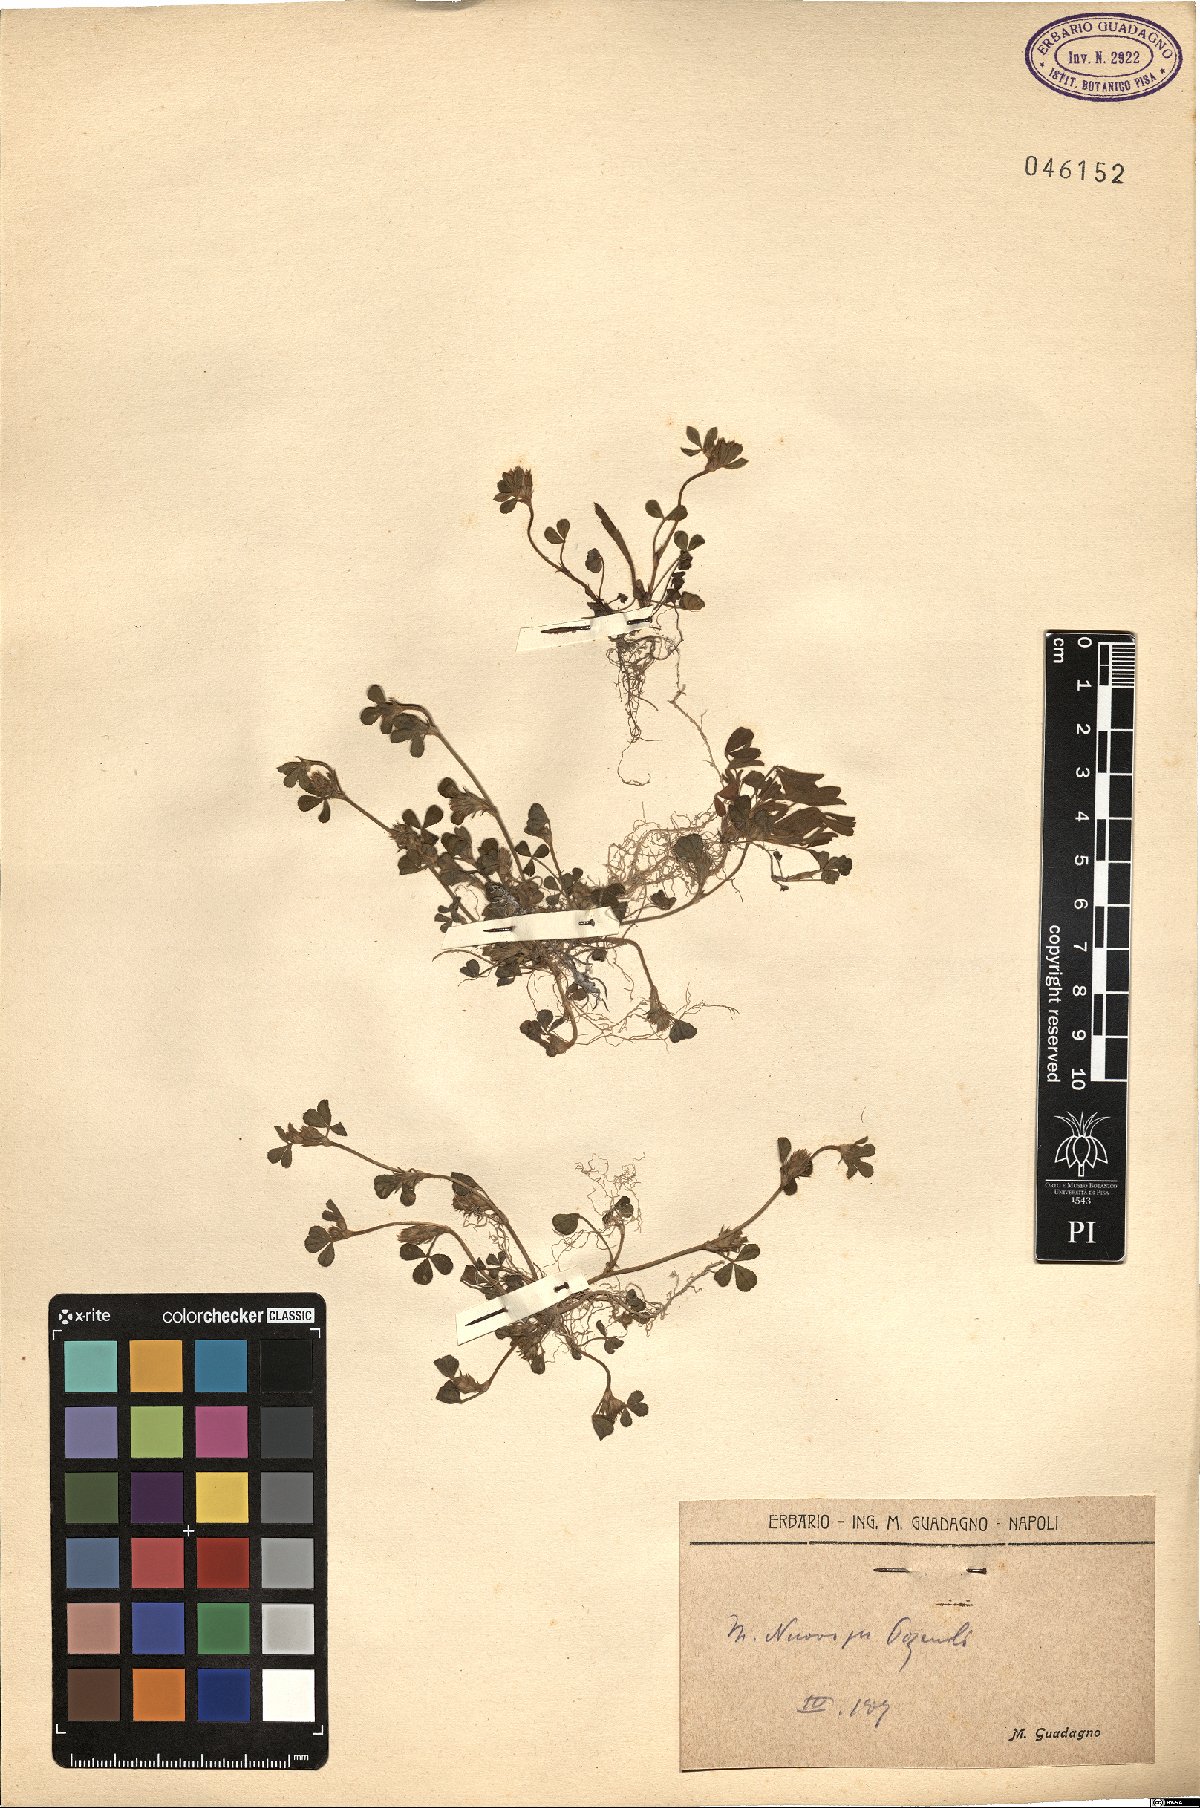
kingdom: Plantae
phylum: Tracheophyta
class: Magnoliopsida
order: Fabales
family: Fabaceae
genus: Trifolium
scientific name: Trifolium
